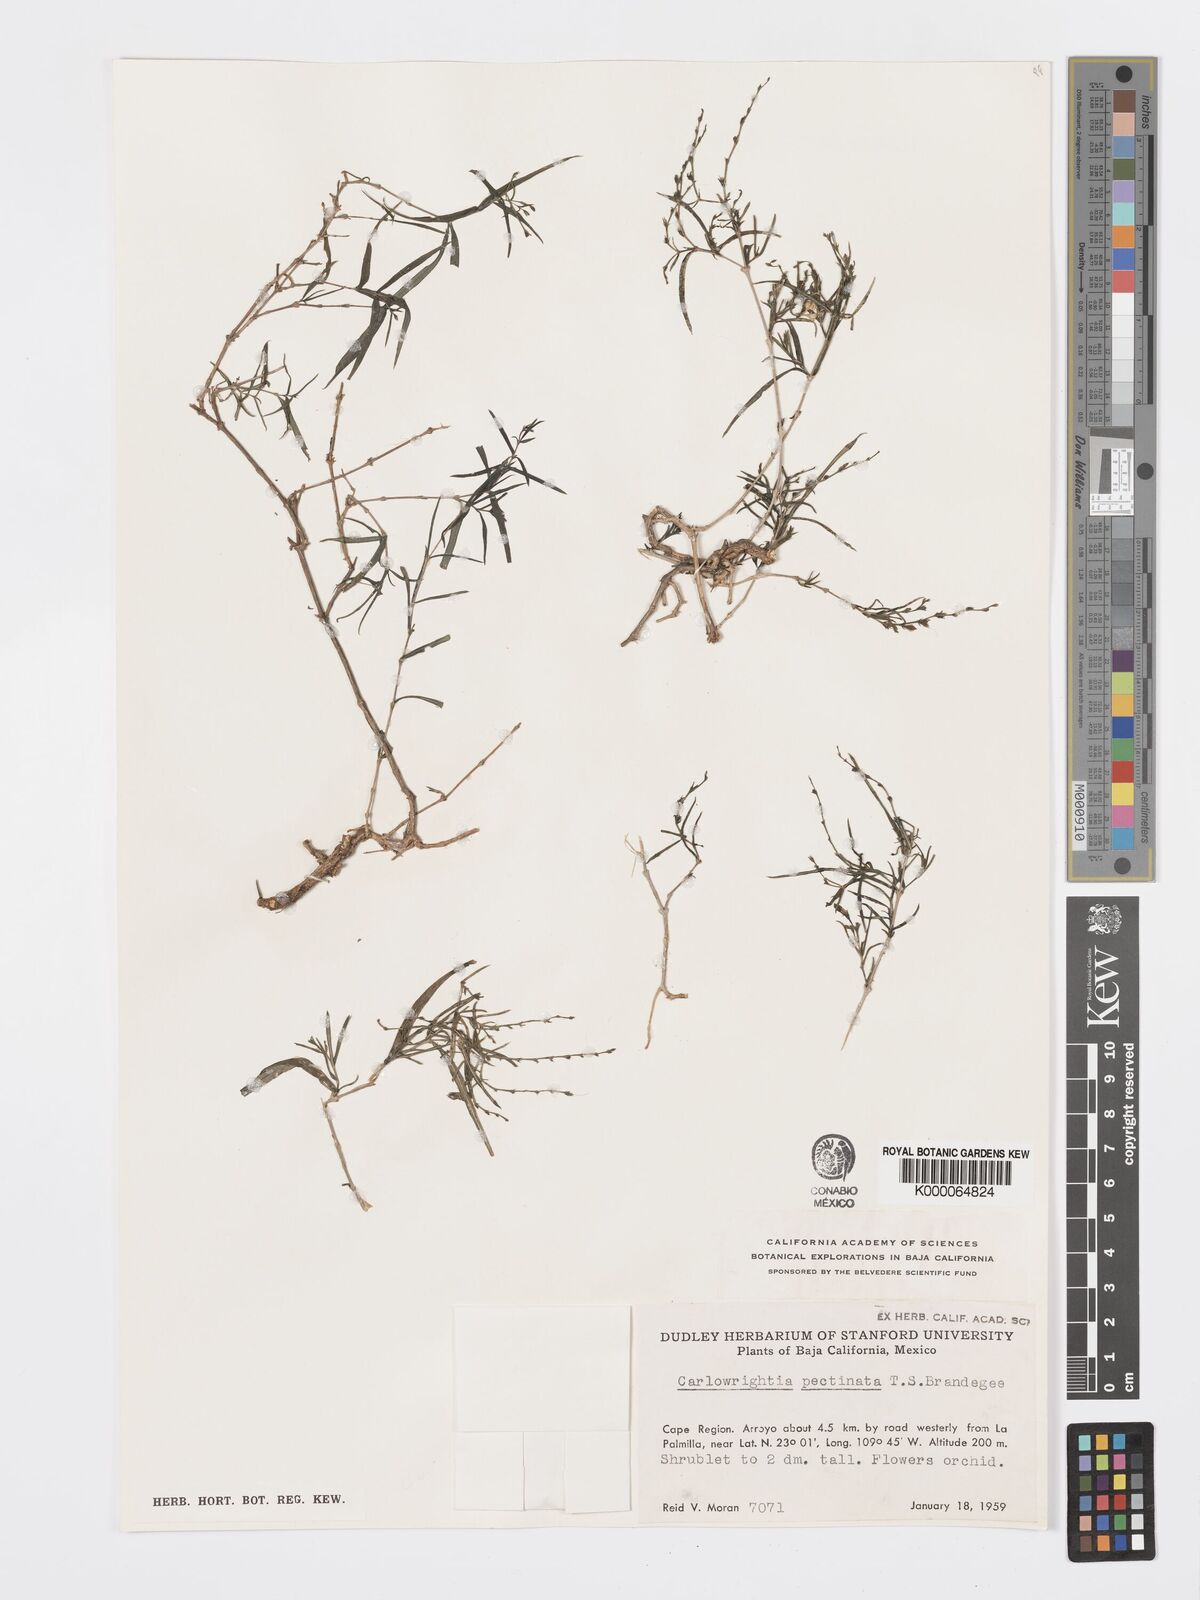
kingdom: Plantae
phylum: Tracheophyta
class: Magnoliopsida
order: Lamiales
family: Acanthaceae
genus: Carlowrightia
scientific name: Carlowrightia pectinata
